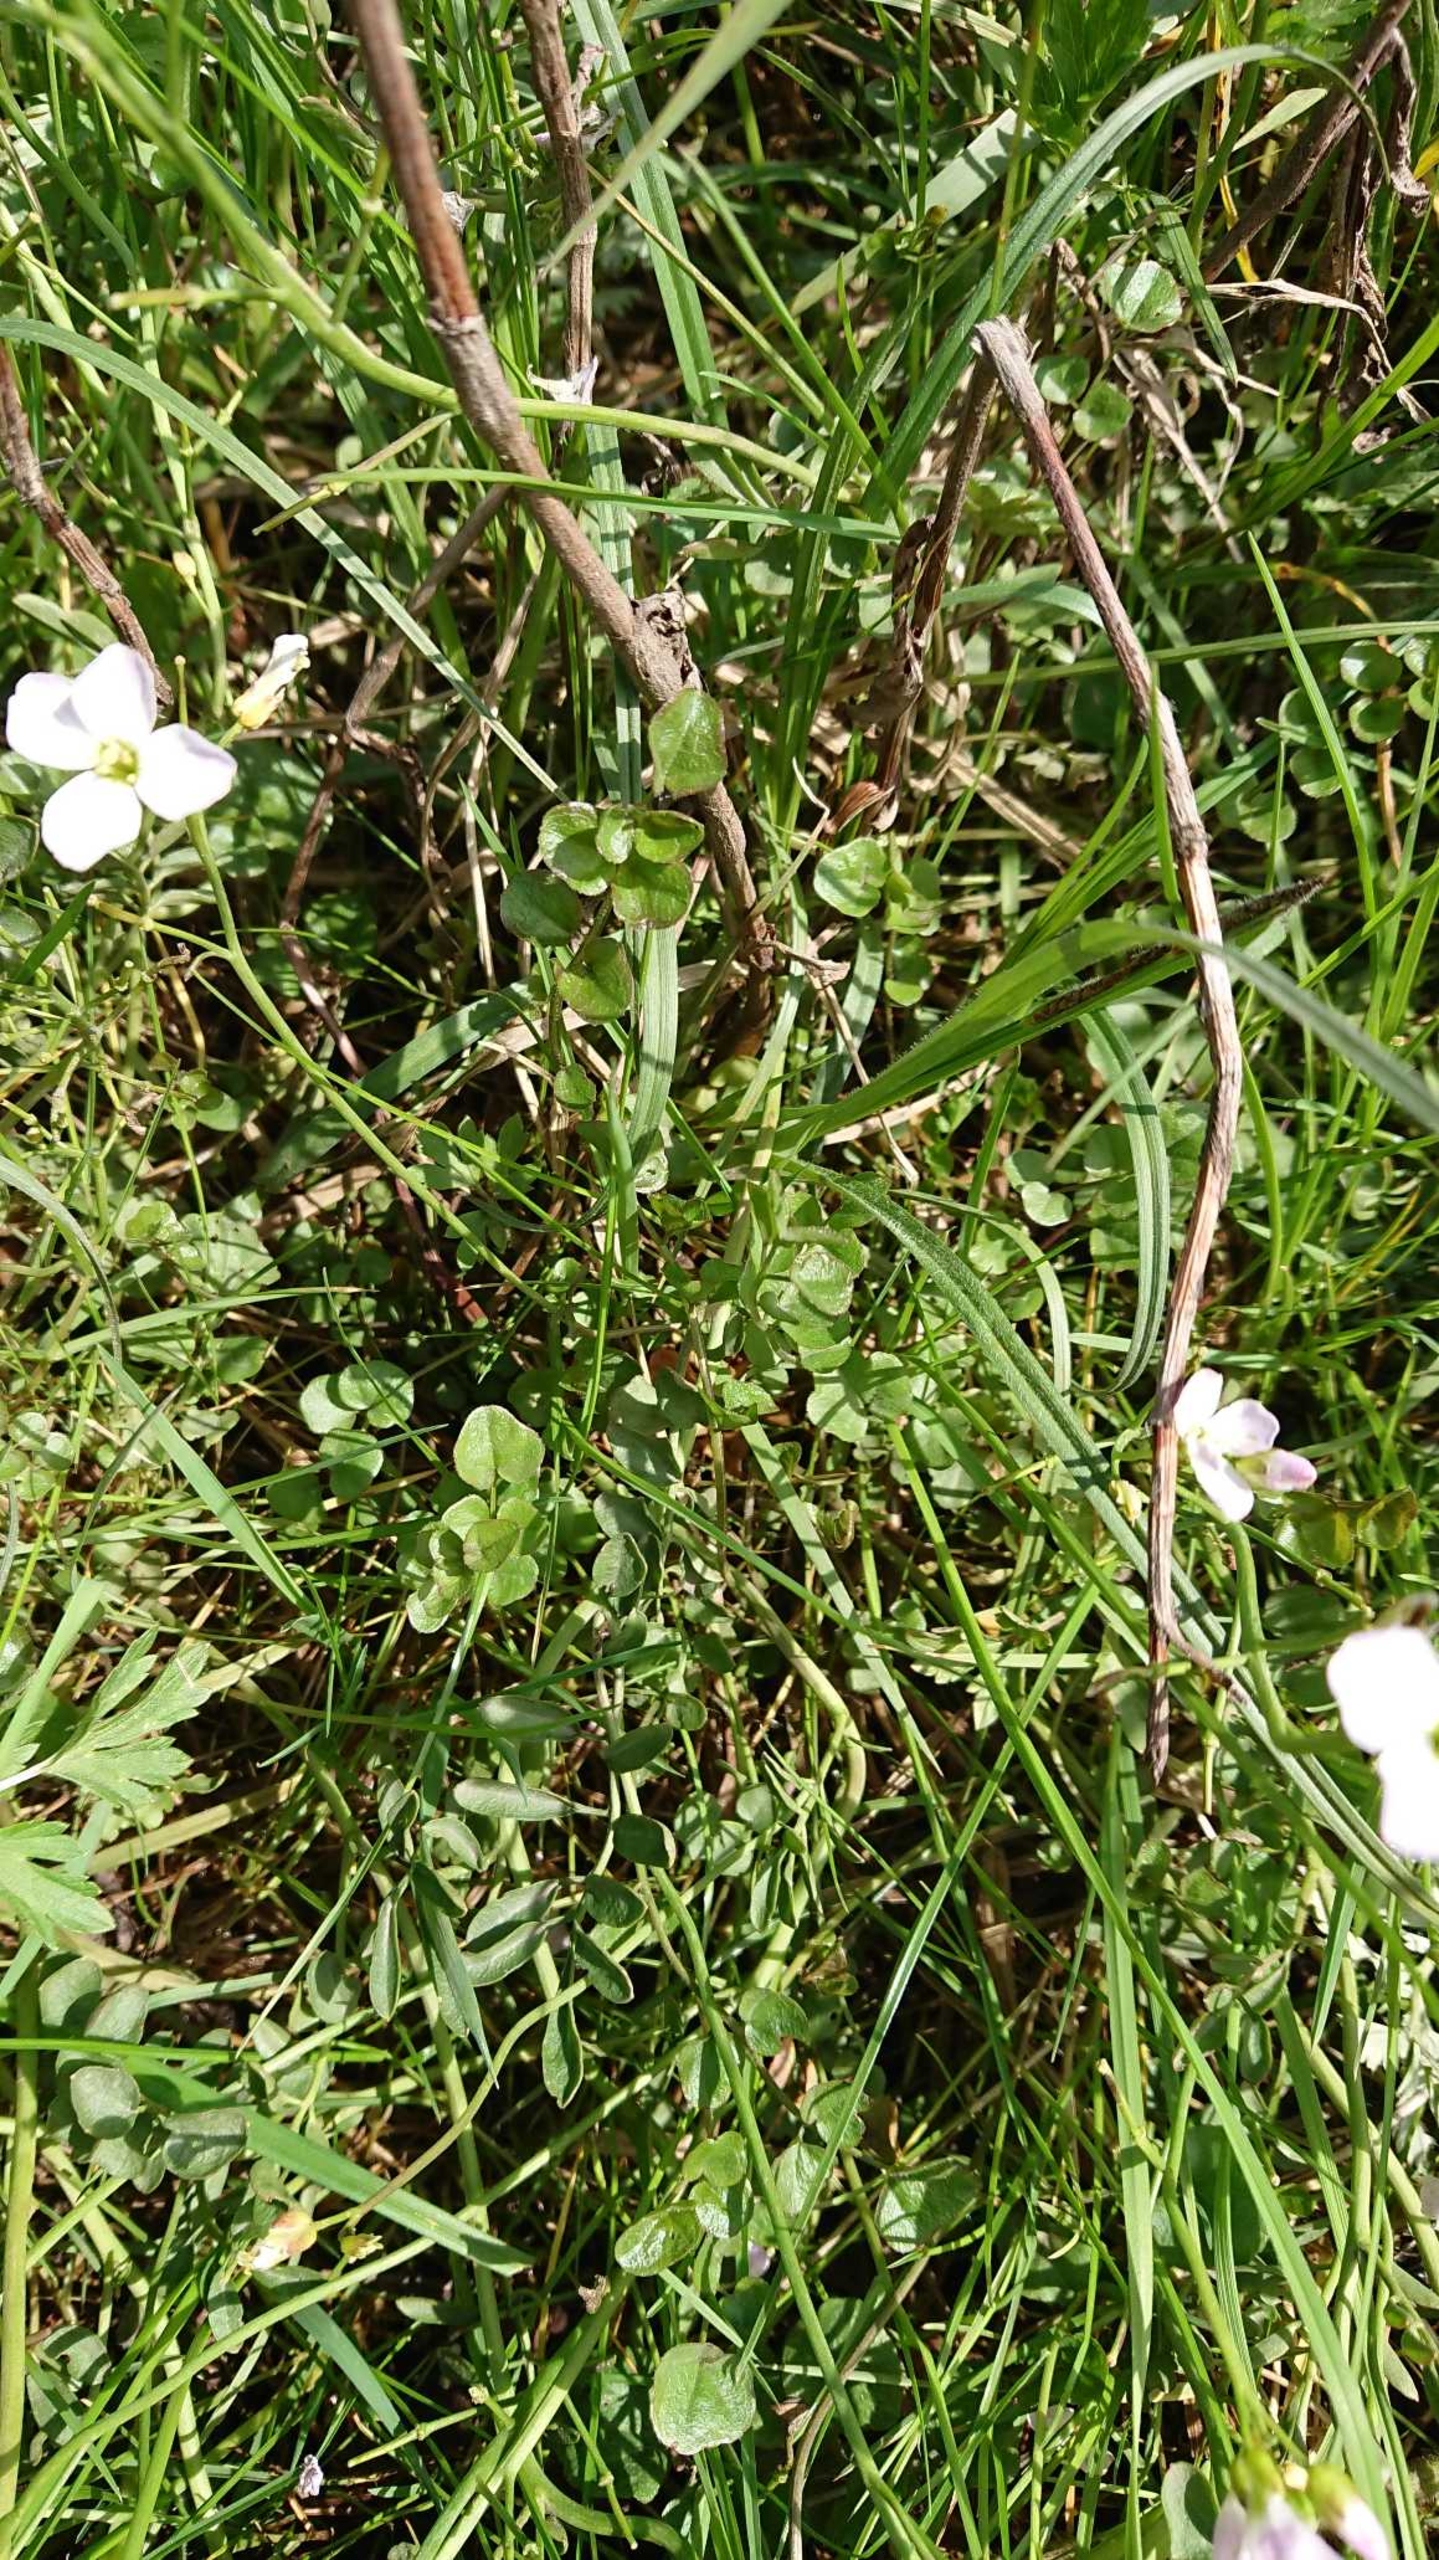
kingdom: Plantae
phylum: Tracheophyta
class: Magnoliopsida
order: Brassicales
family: Brassicaceae
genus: Cardamine
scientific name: Cardamine pratensis
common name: Engkarse
